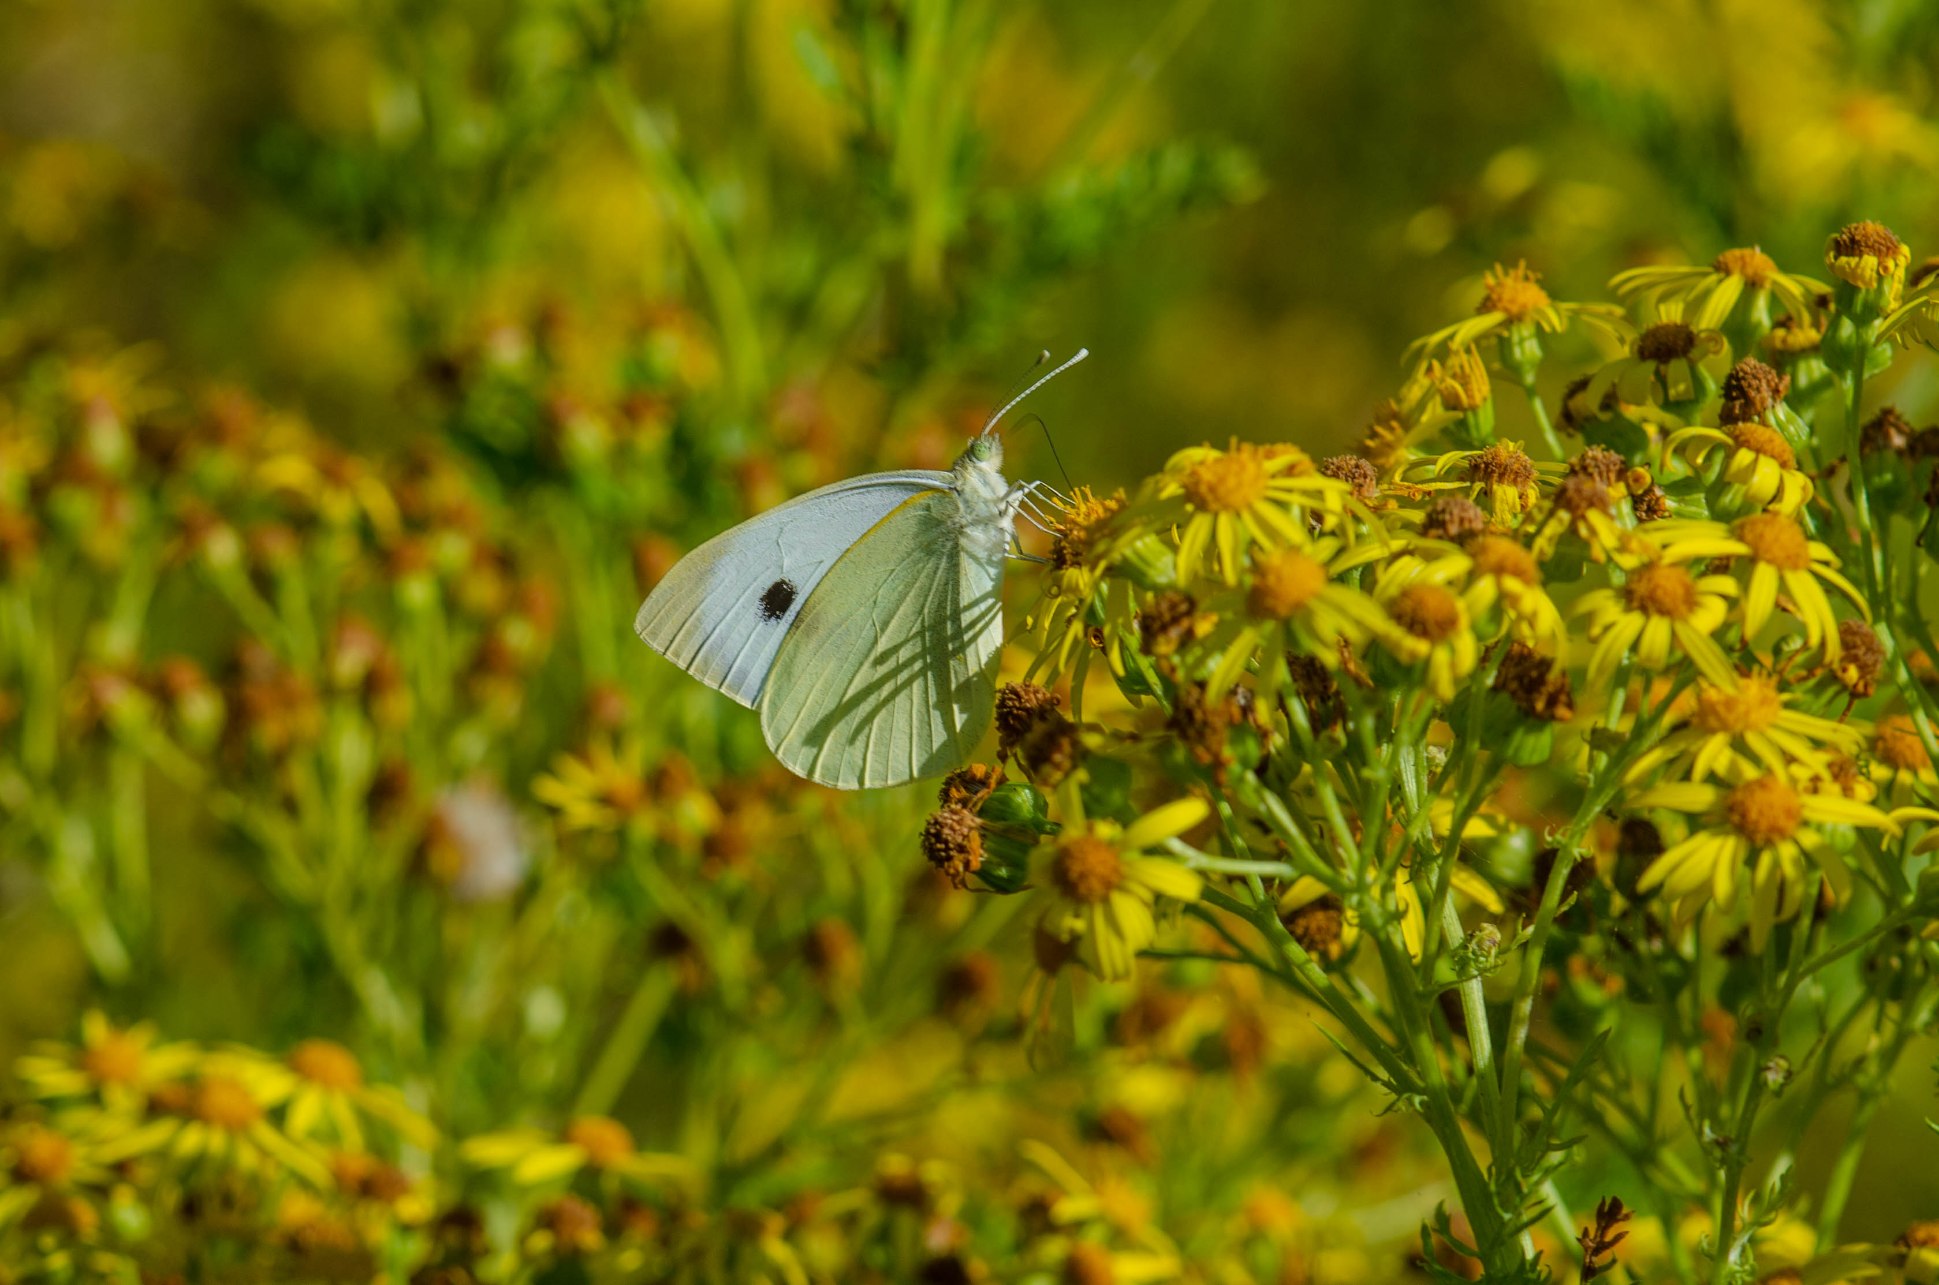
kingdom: Animalia
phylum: Arthropoda
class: Insecta
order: Lepidoptera
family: Pieridae
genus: Pieris
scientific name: Pieris brassicae
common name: Stor kålsommerfugl
